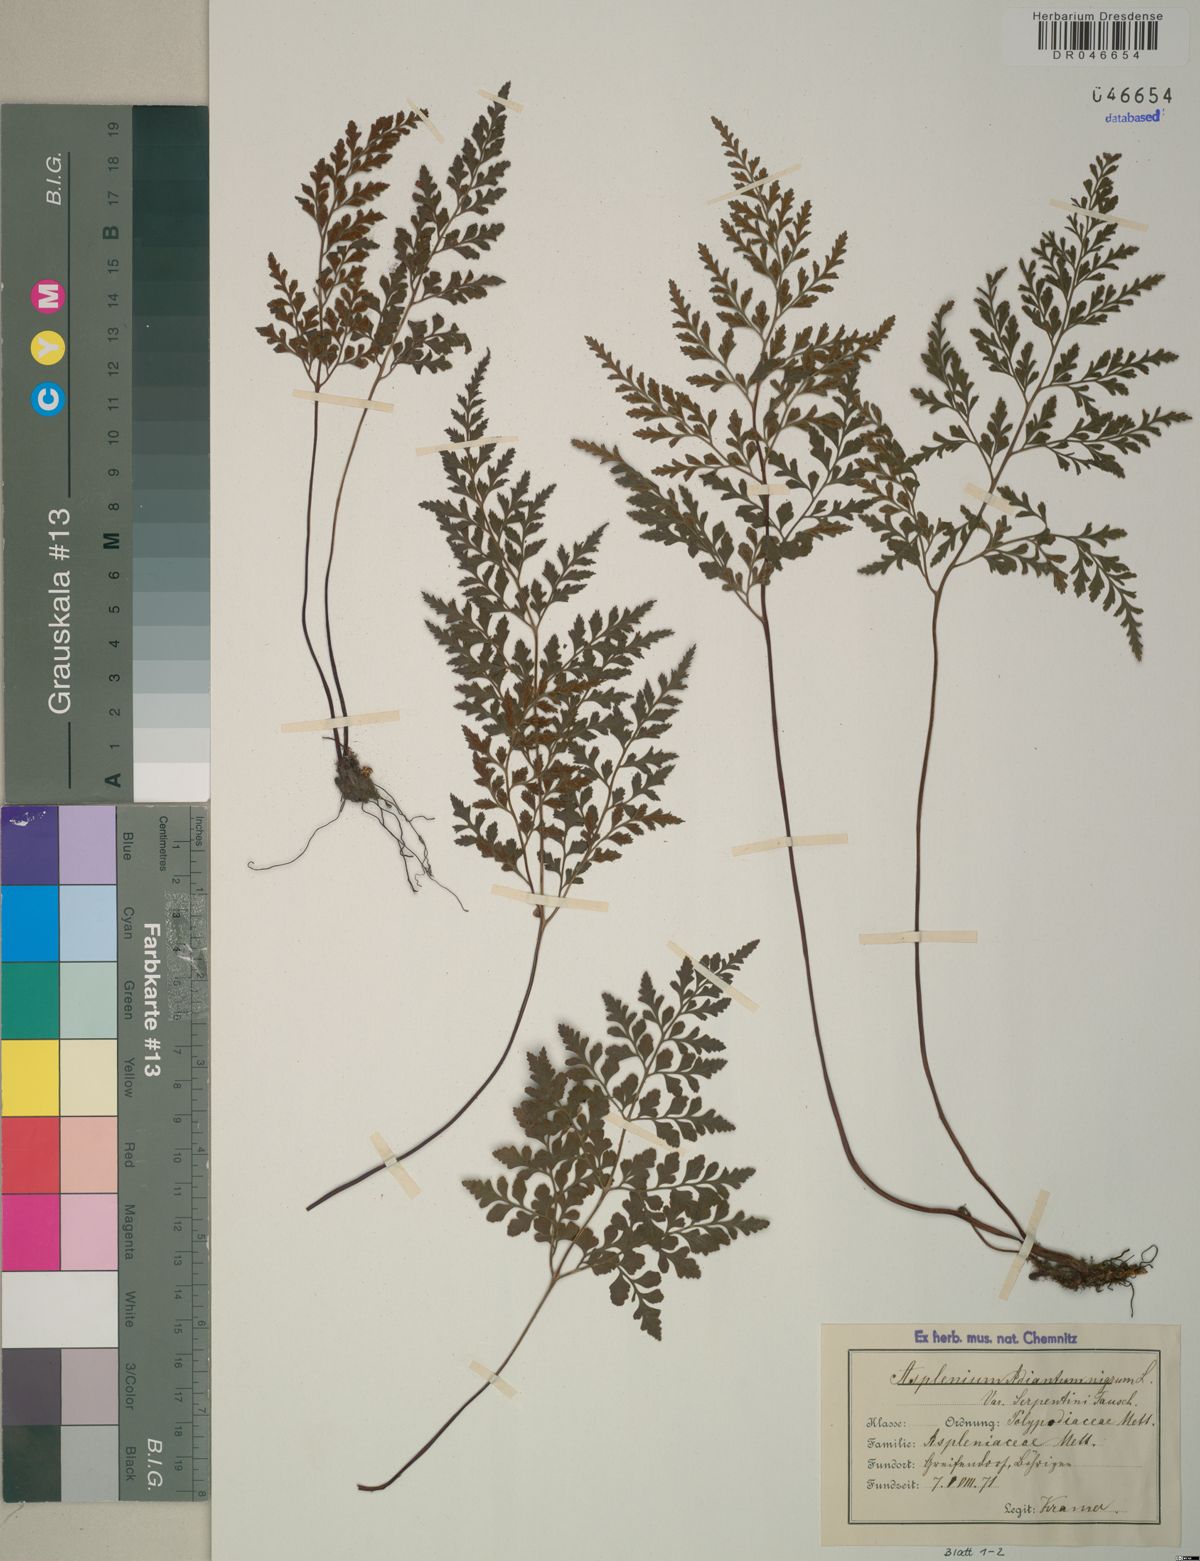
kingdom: Plantae
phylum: Tracheophyta
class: Polypodiopsida
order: Polypodiales
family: Aspleniaceae
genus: Asplenium
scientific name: Asplenium cuneifolium
